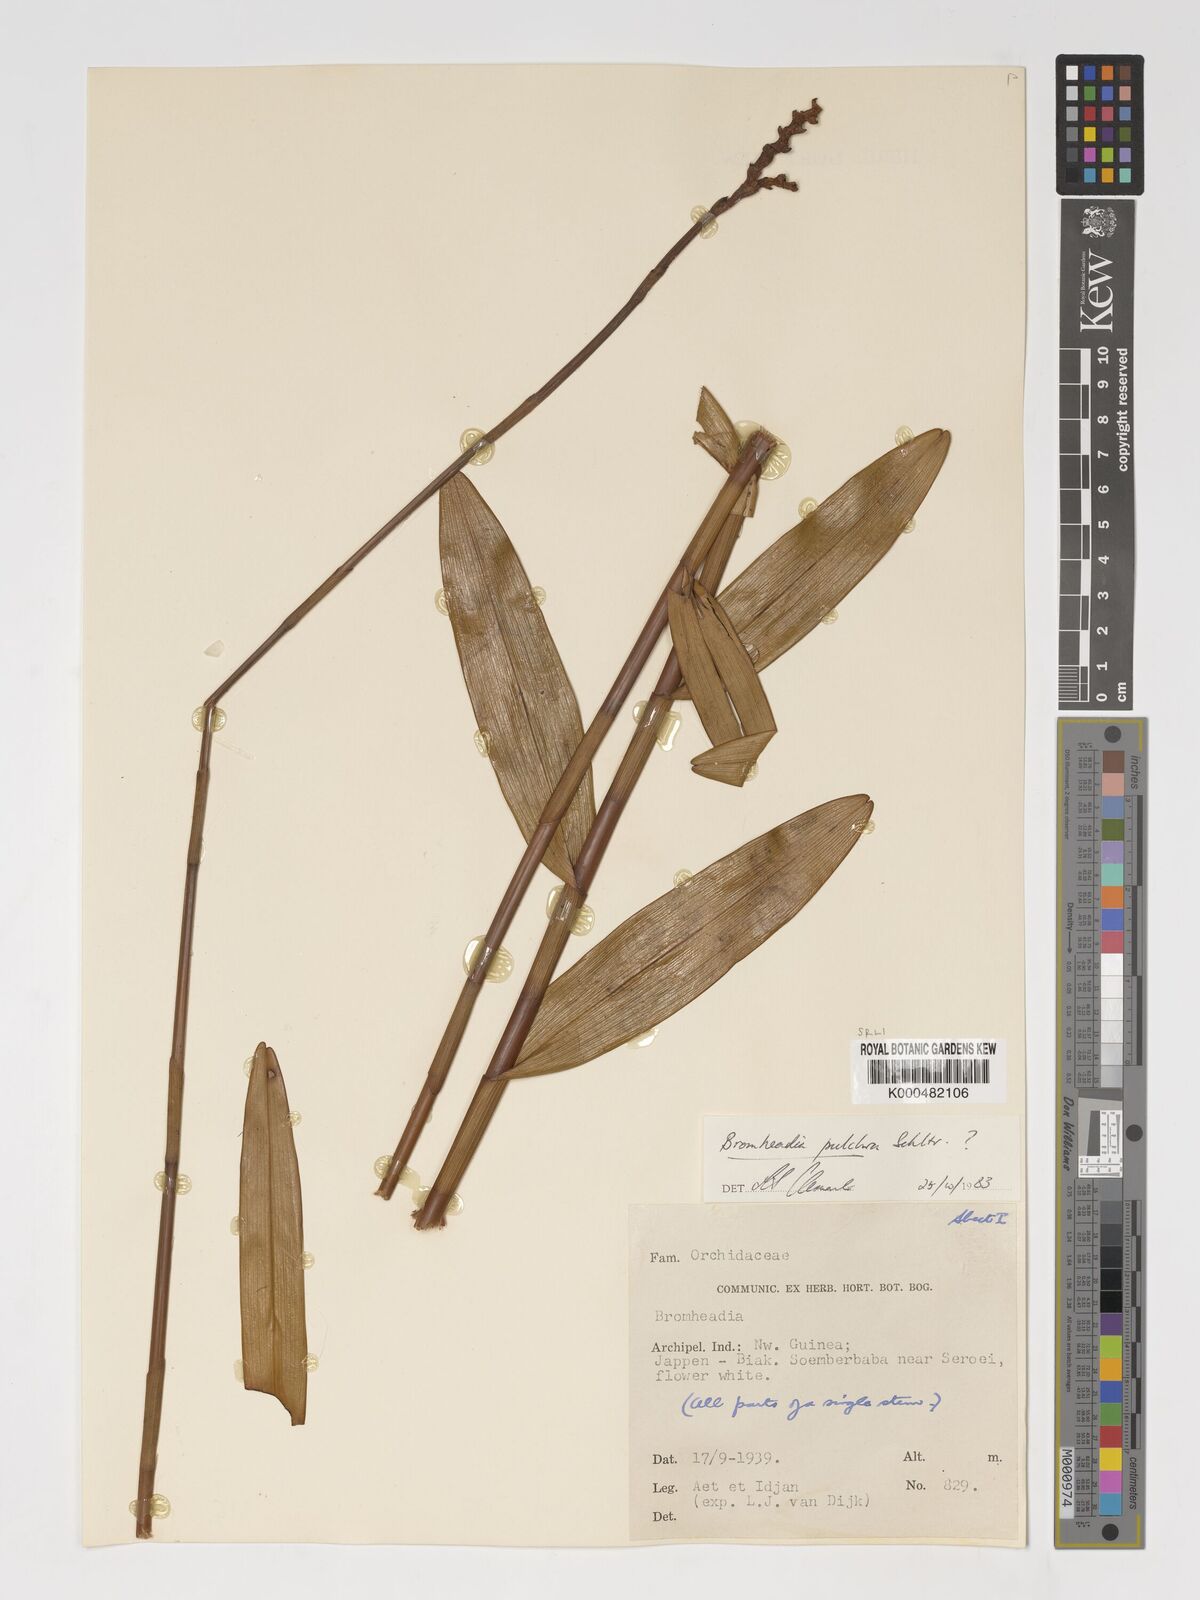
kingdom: Plantae
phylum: Tracheophyta
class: Liliopsida
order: Asparagales
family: Orchidaceae
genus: Bromheadia
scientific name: Bromheadia finlaysoniana
